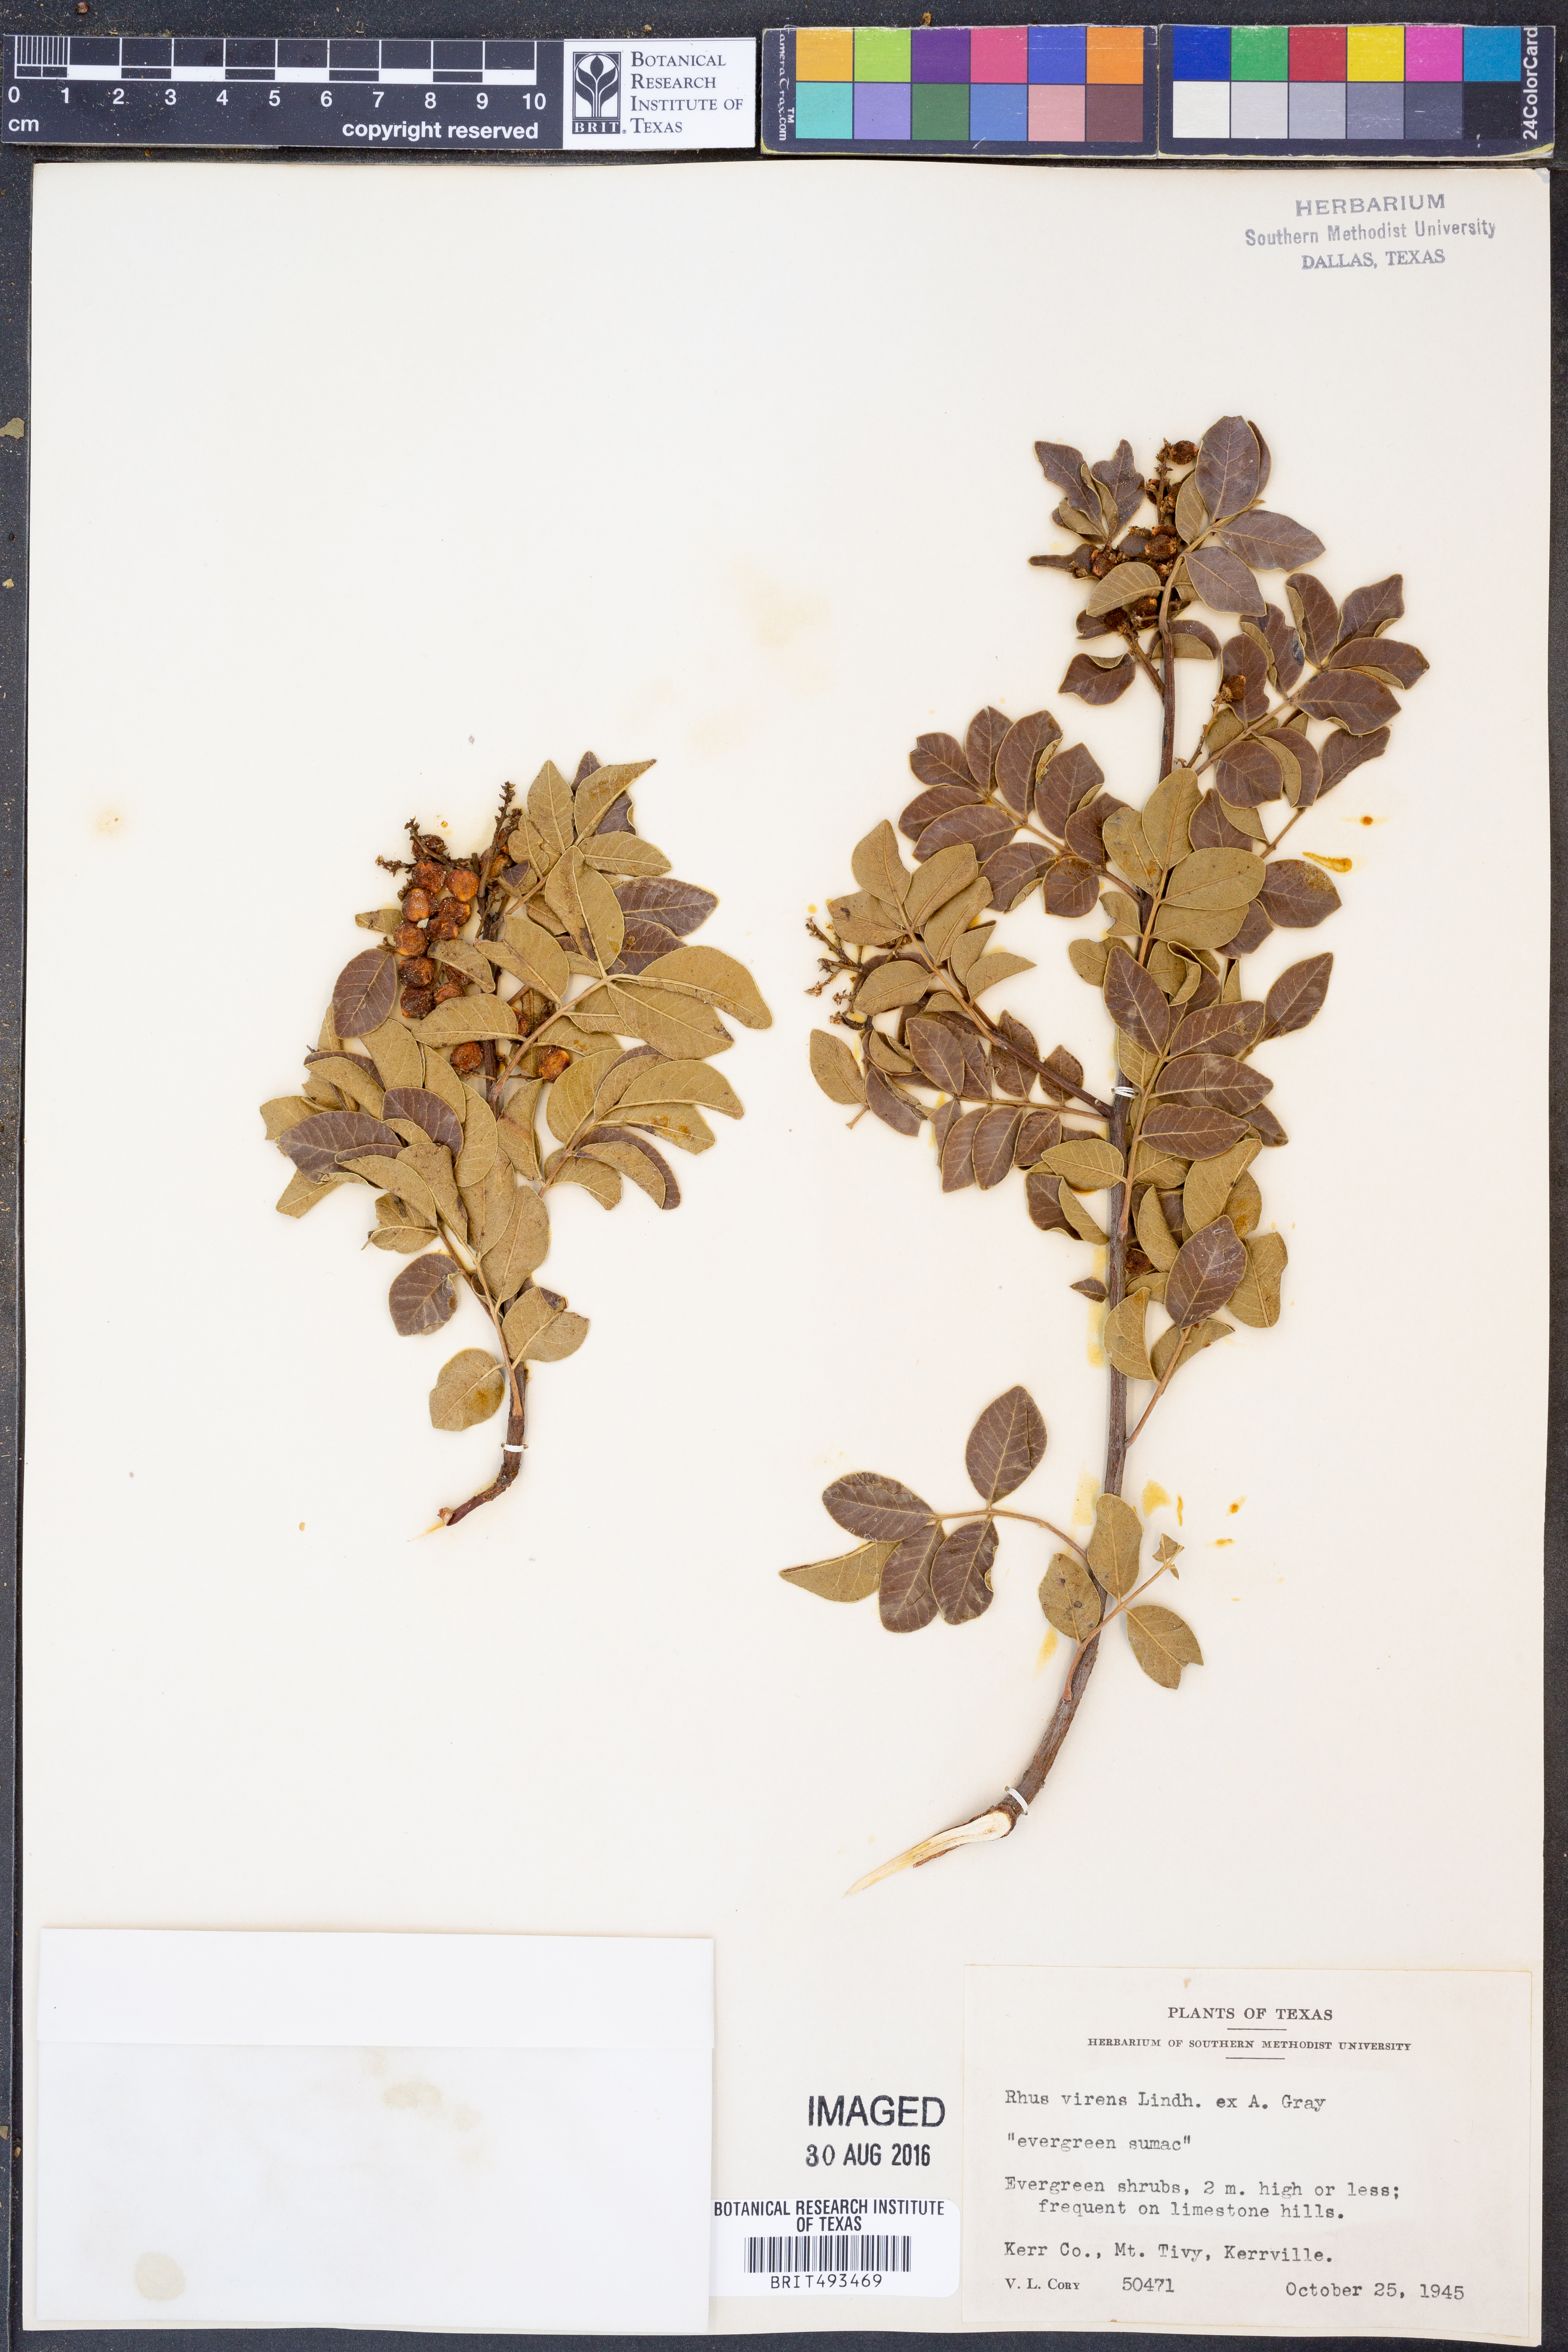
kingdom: Plantae
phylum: Tracheophyta
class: Magnoliopsida
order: Sapindales
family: Anacardiaceae
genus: Rhus
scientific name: Rhus virens
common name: Evergreen sumac
